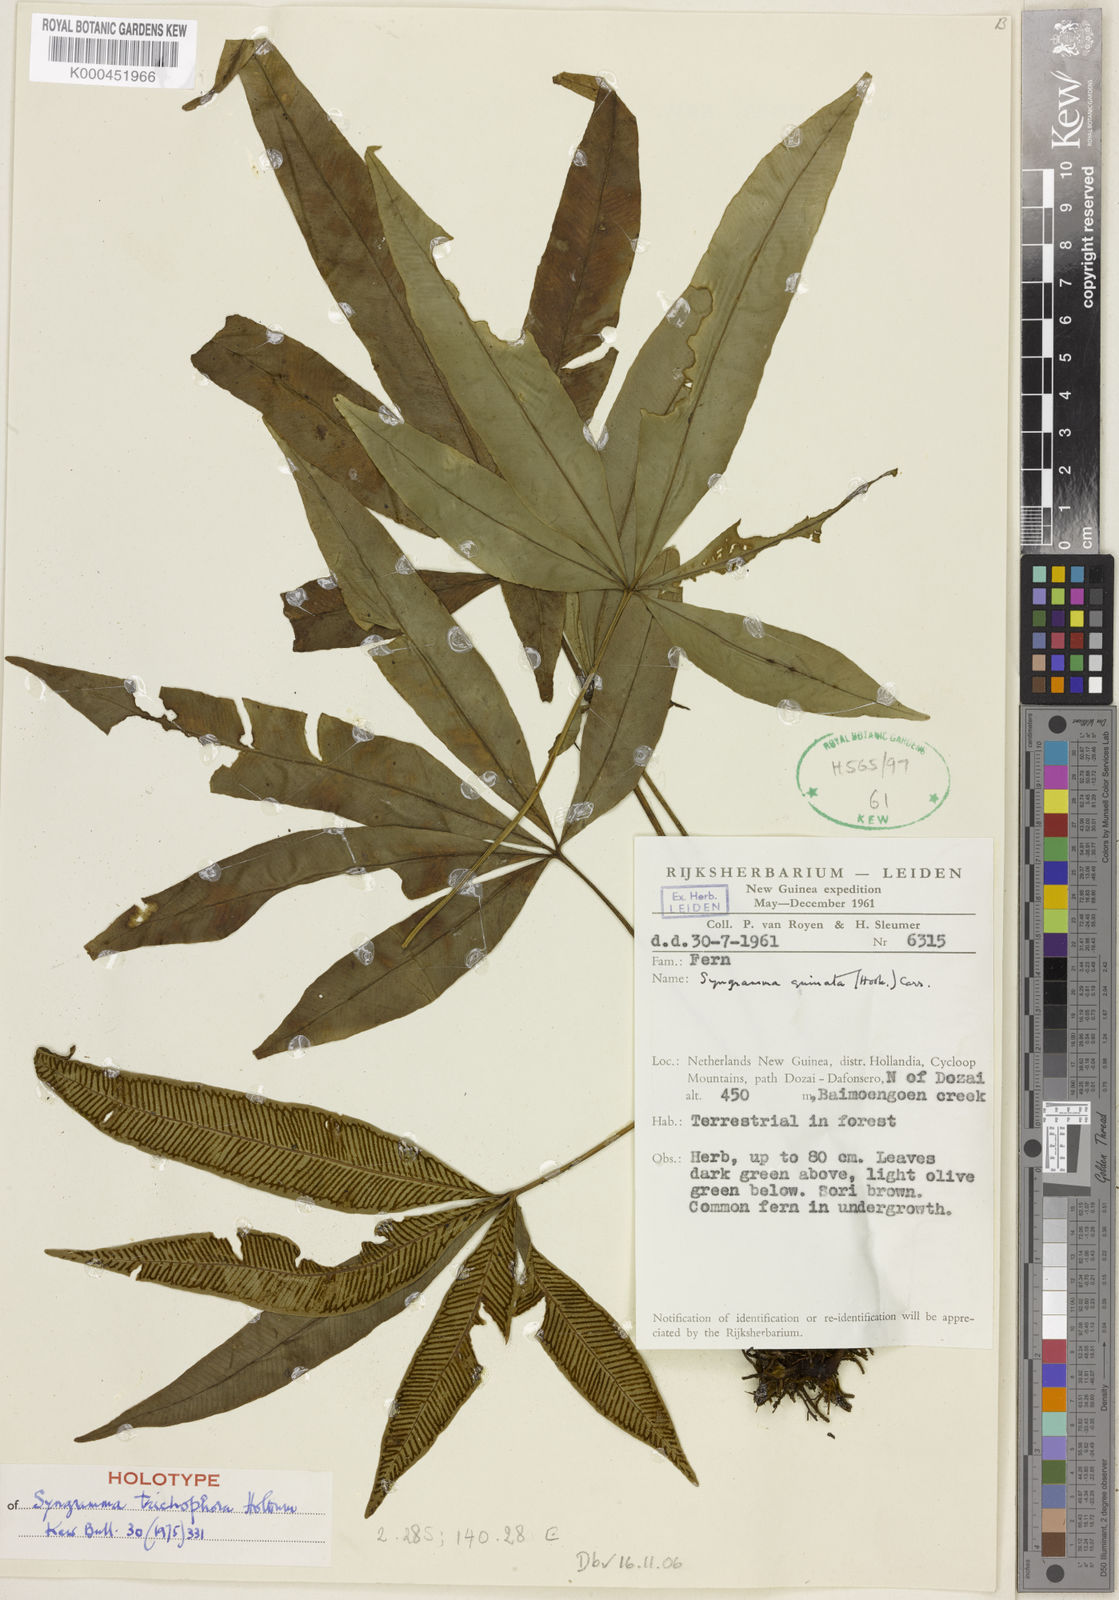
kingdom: Plantae
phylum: Tracheophyta
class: Polypodiopsida
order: Polypodiales
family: Pteridaceae
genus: Syngramma
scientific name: Syngramma trichophora
